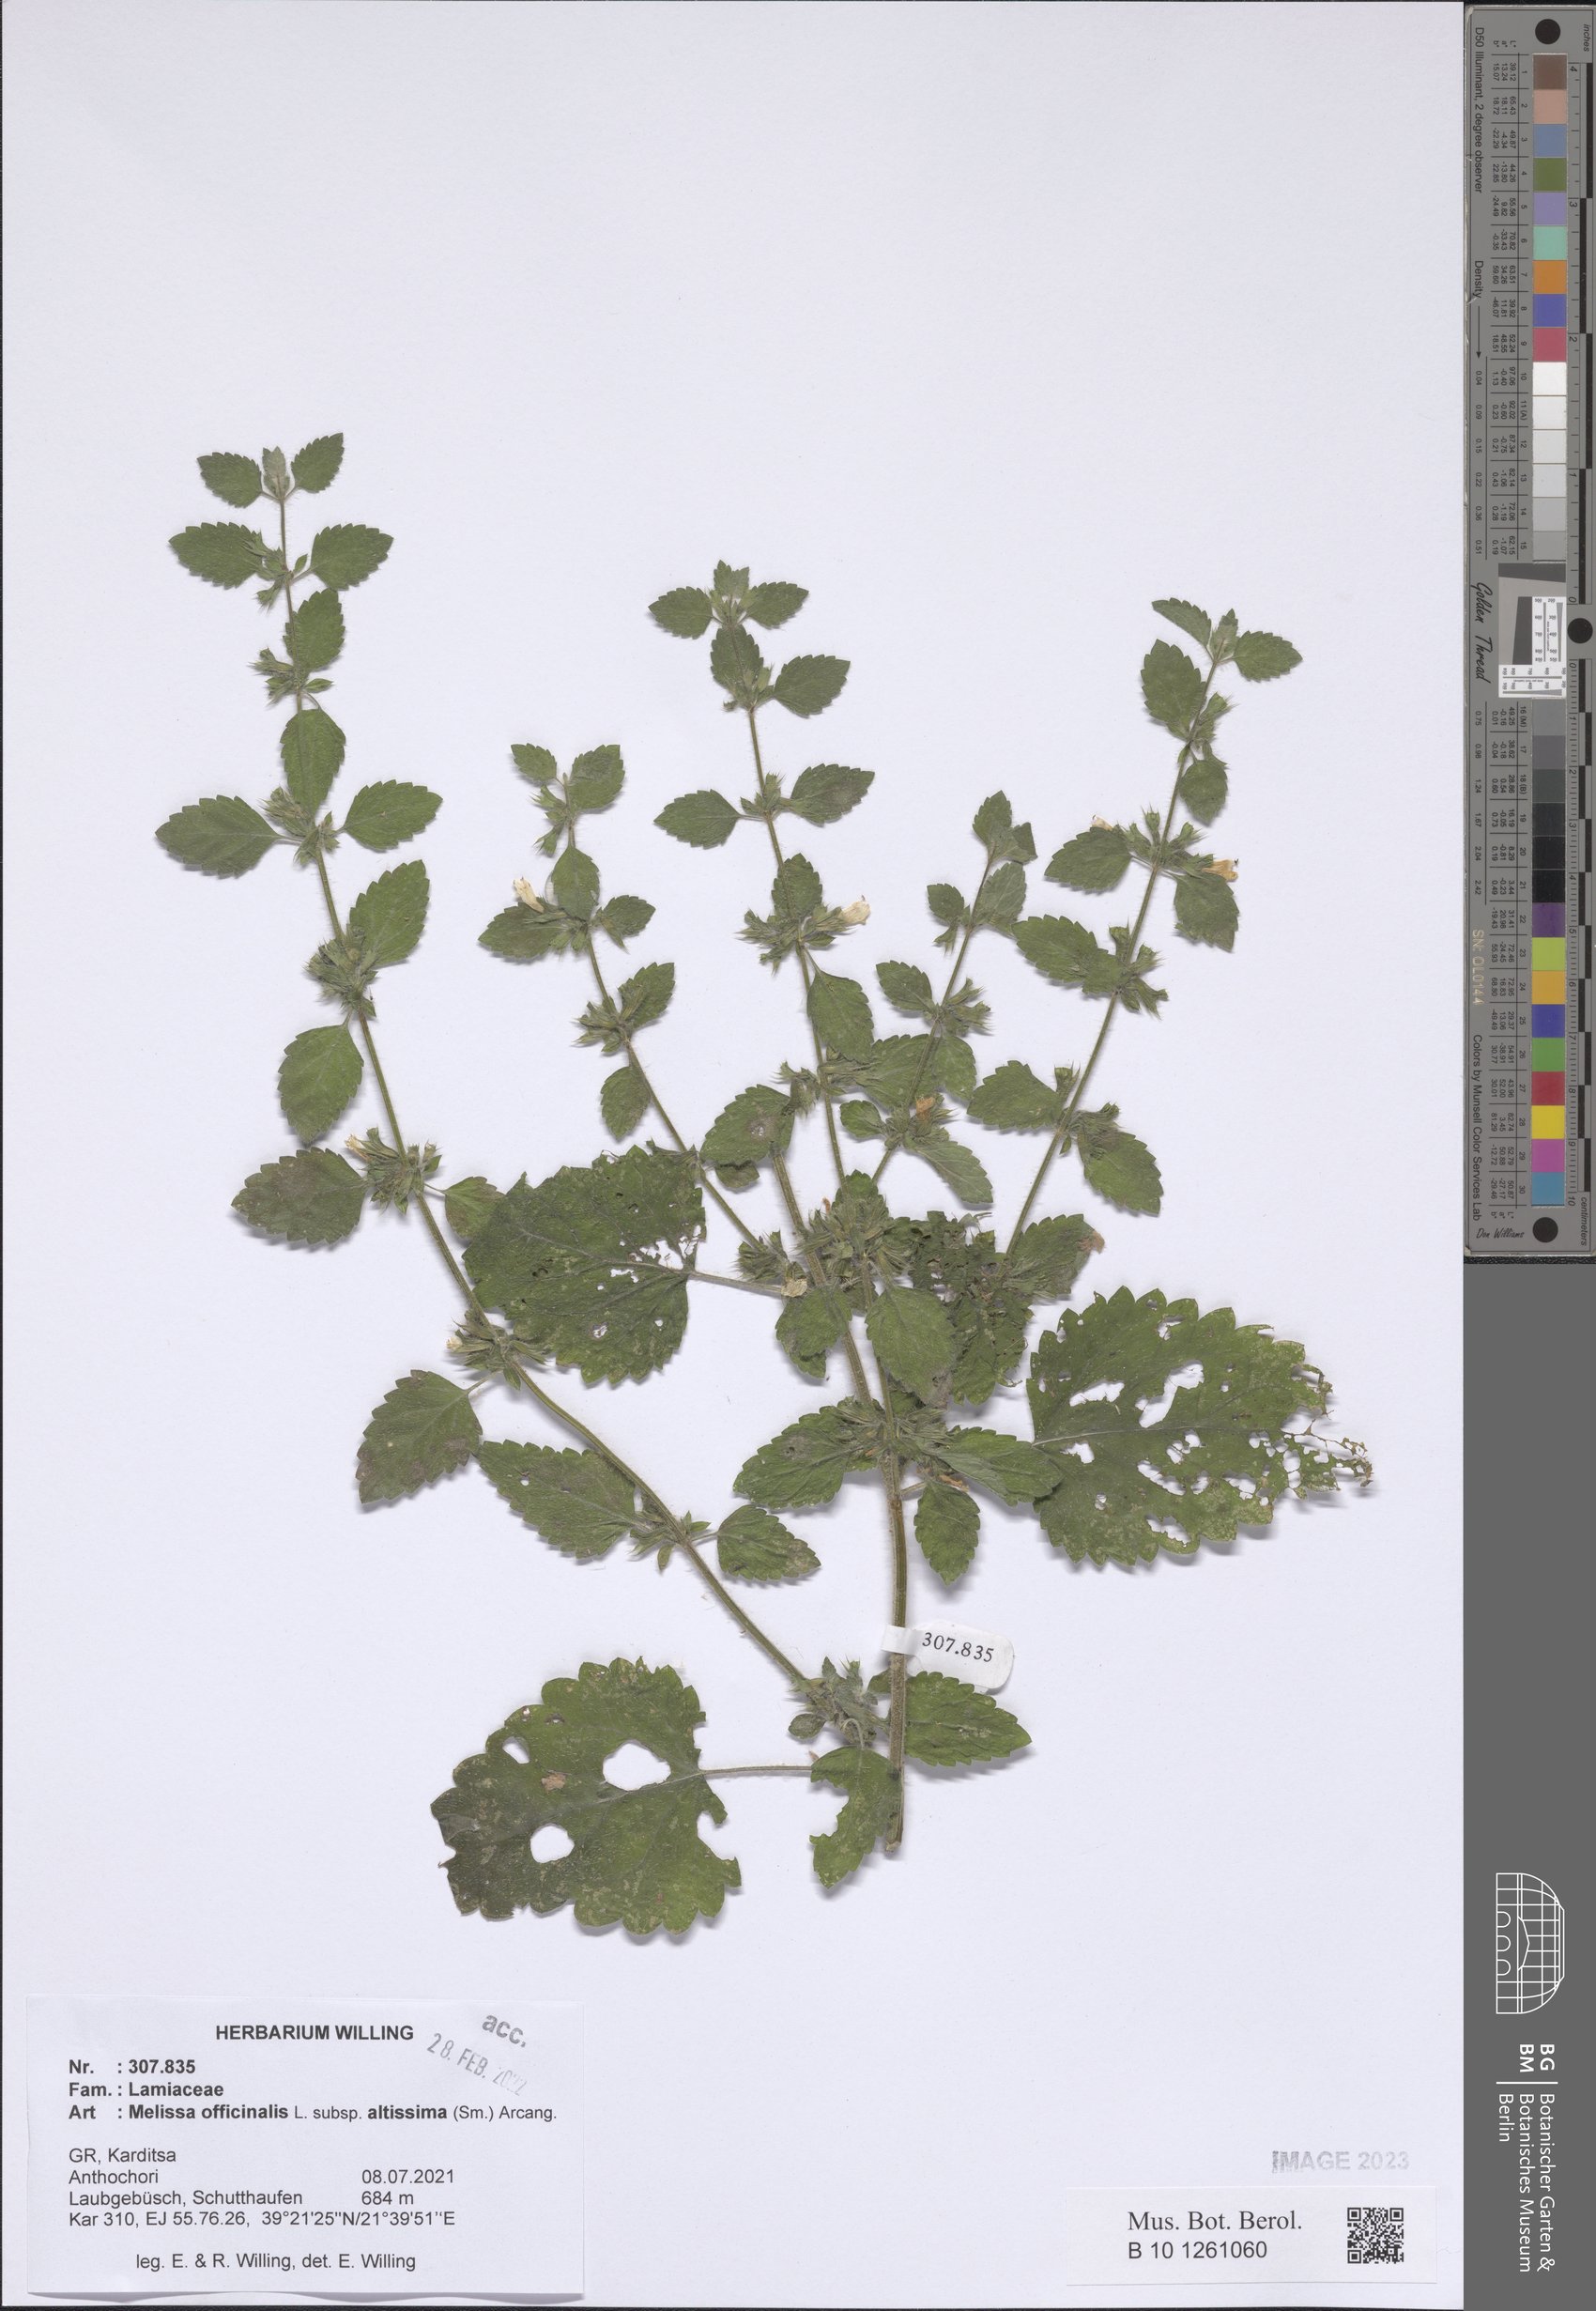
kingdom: Plantae
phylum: Tracheophyta
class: Magnoliopsida
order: Lamiales
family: Lamiaceae
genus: Melissa
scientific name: Melissa officinalis
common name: Balm
